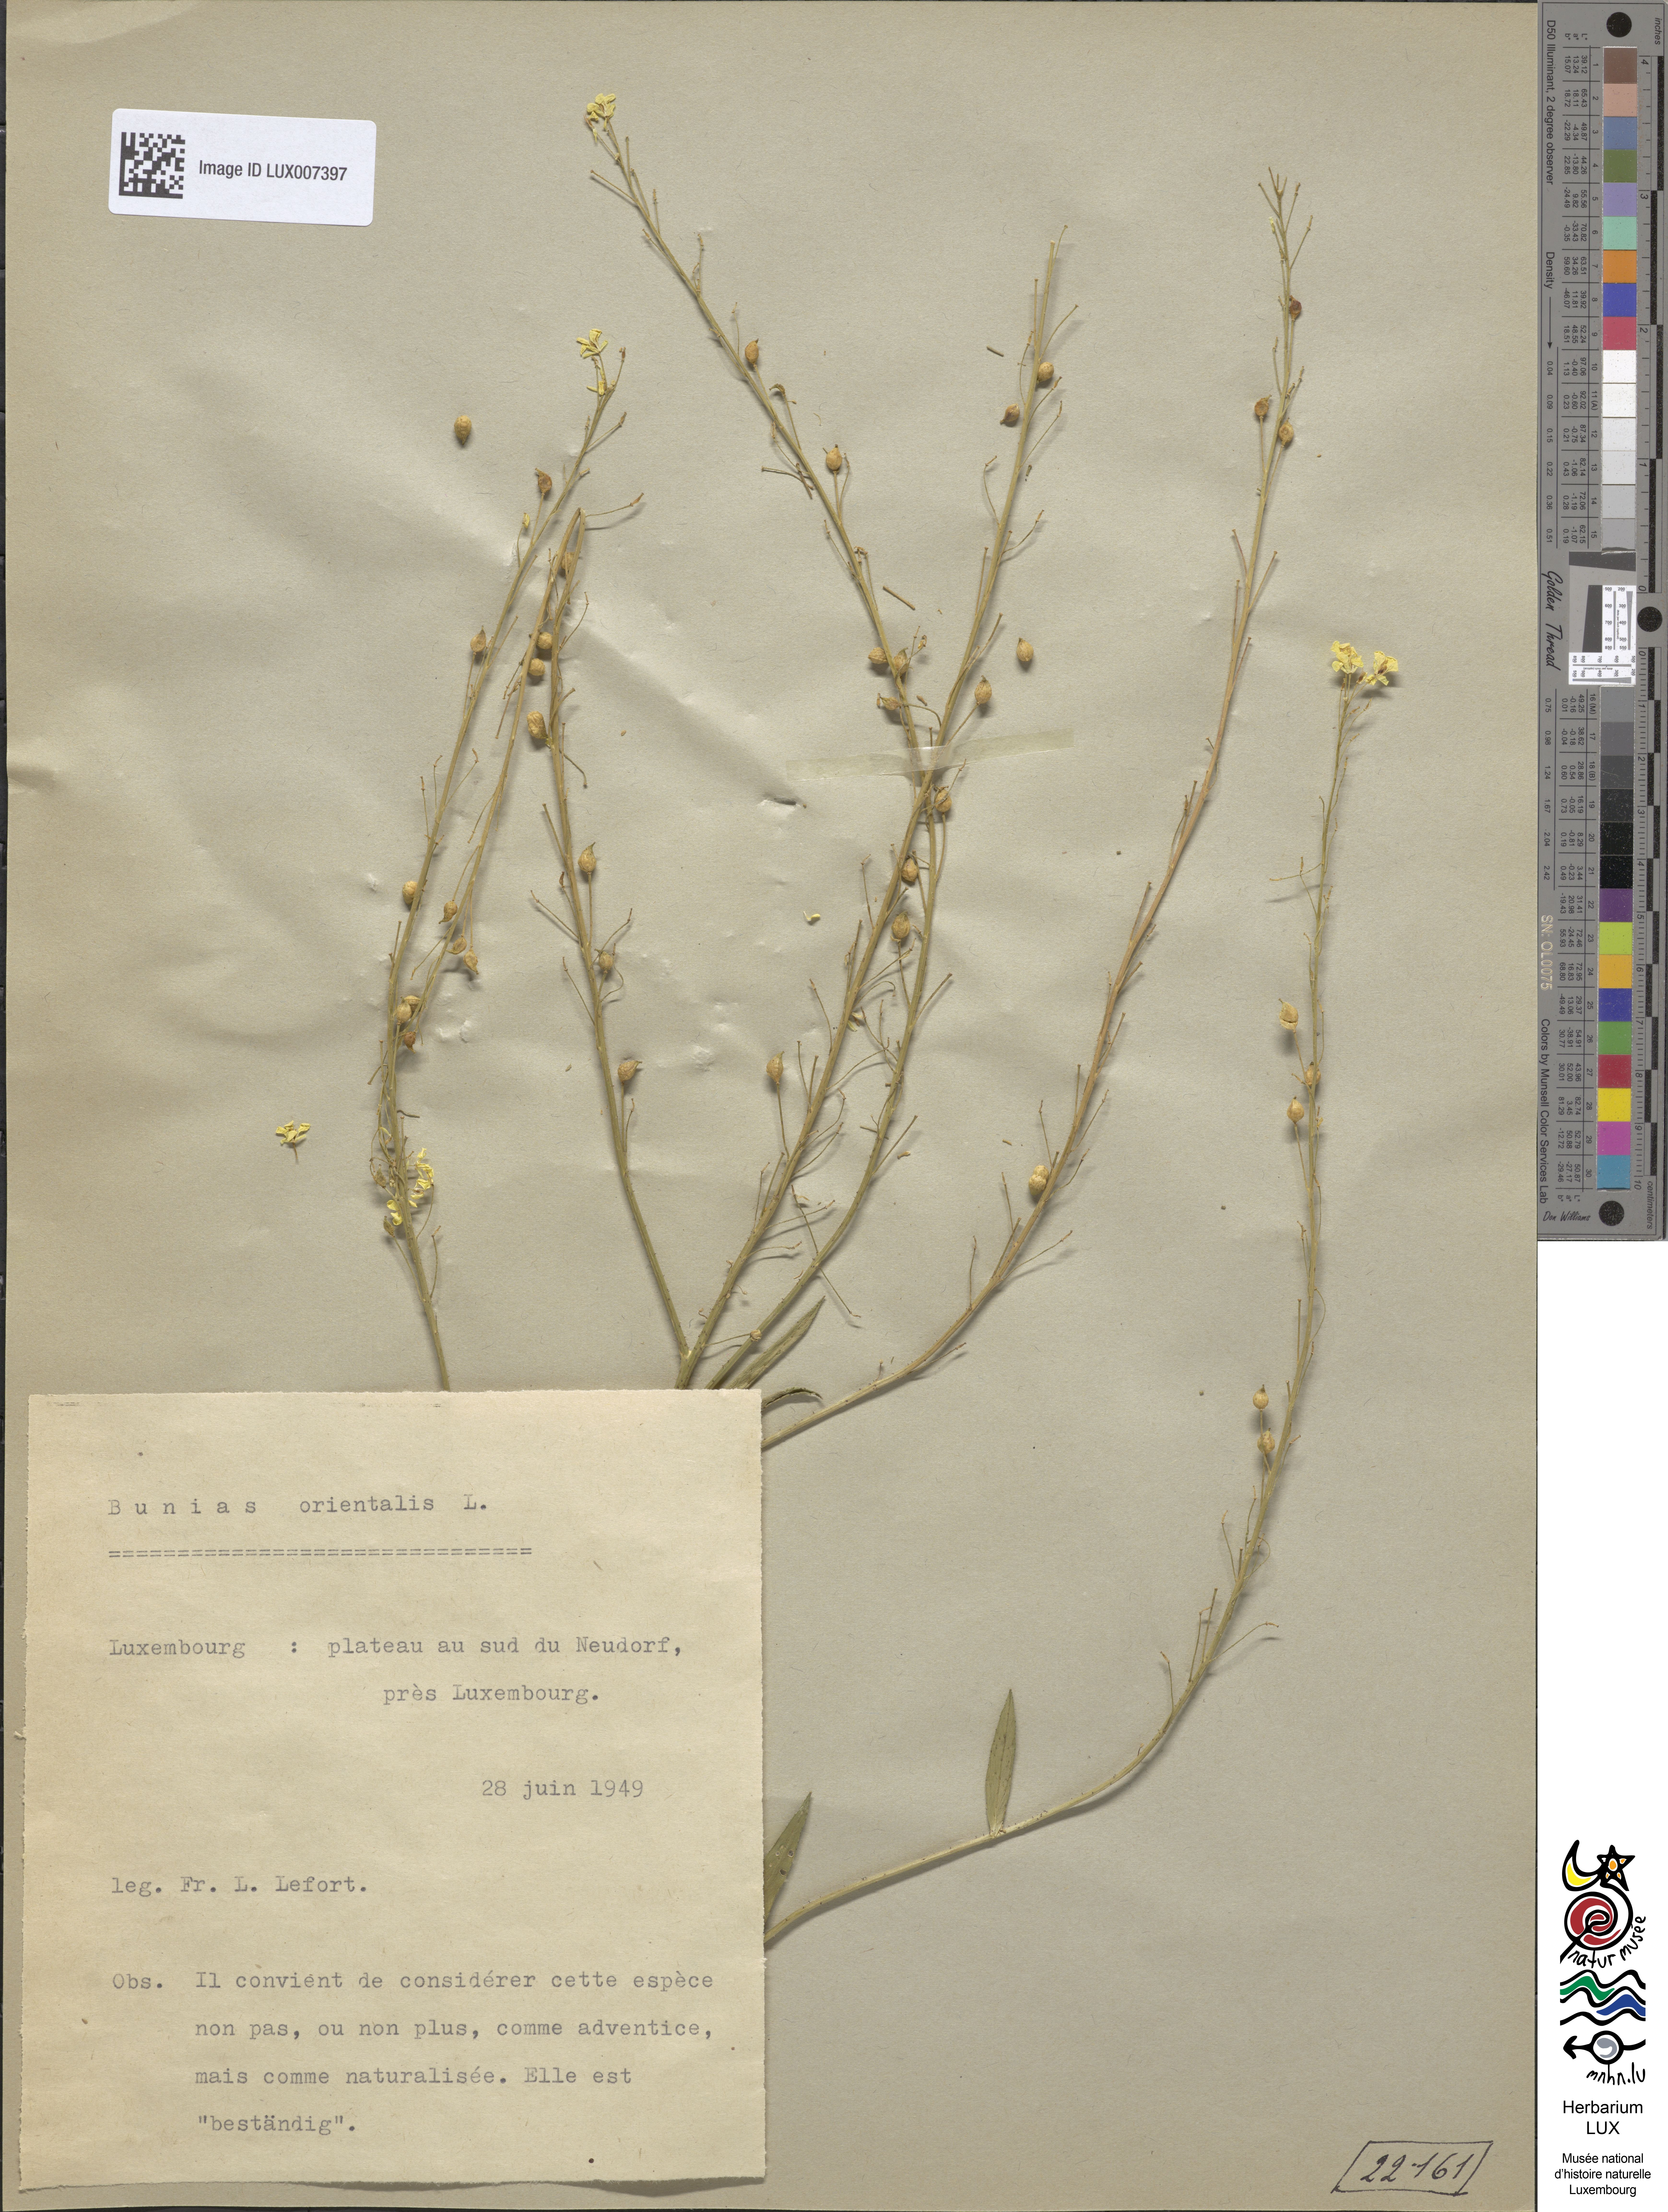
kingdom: Plantae
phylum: Tracheophyta
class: Magnoliopsida
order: Brassicales
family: Brassicaceae
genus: Bunias
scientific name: Bunias orientalis
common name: Warty-cabbage
